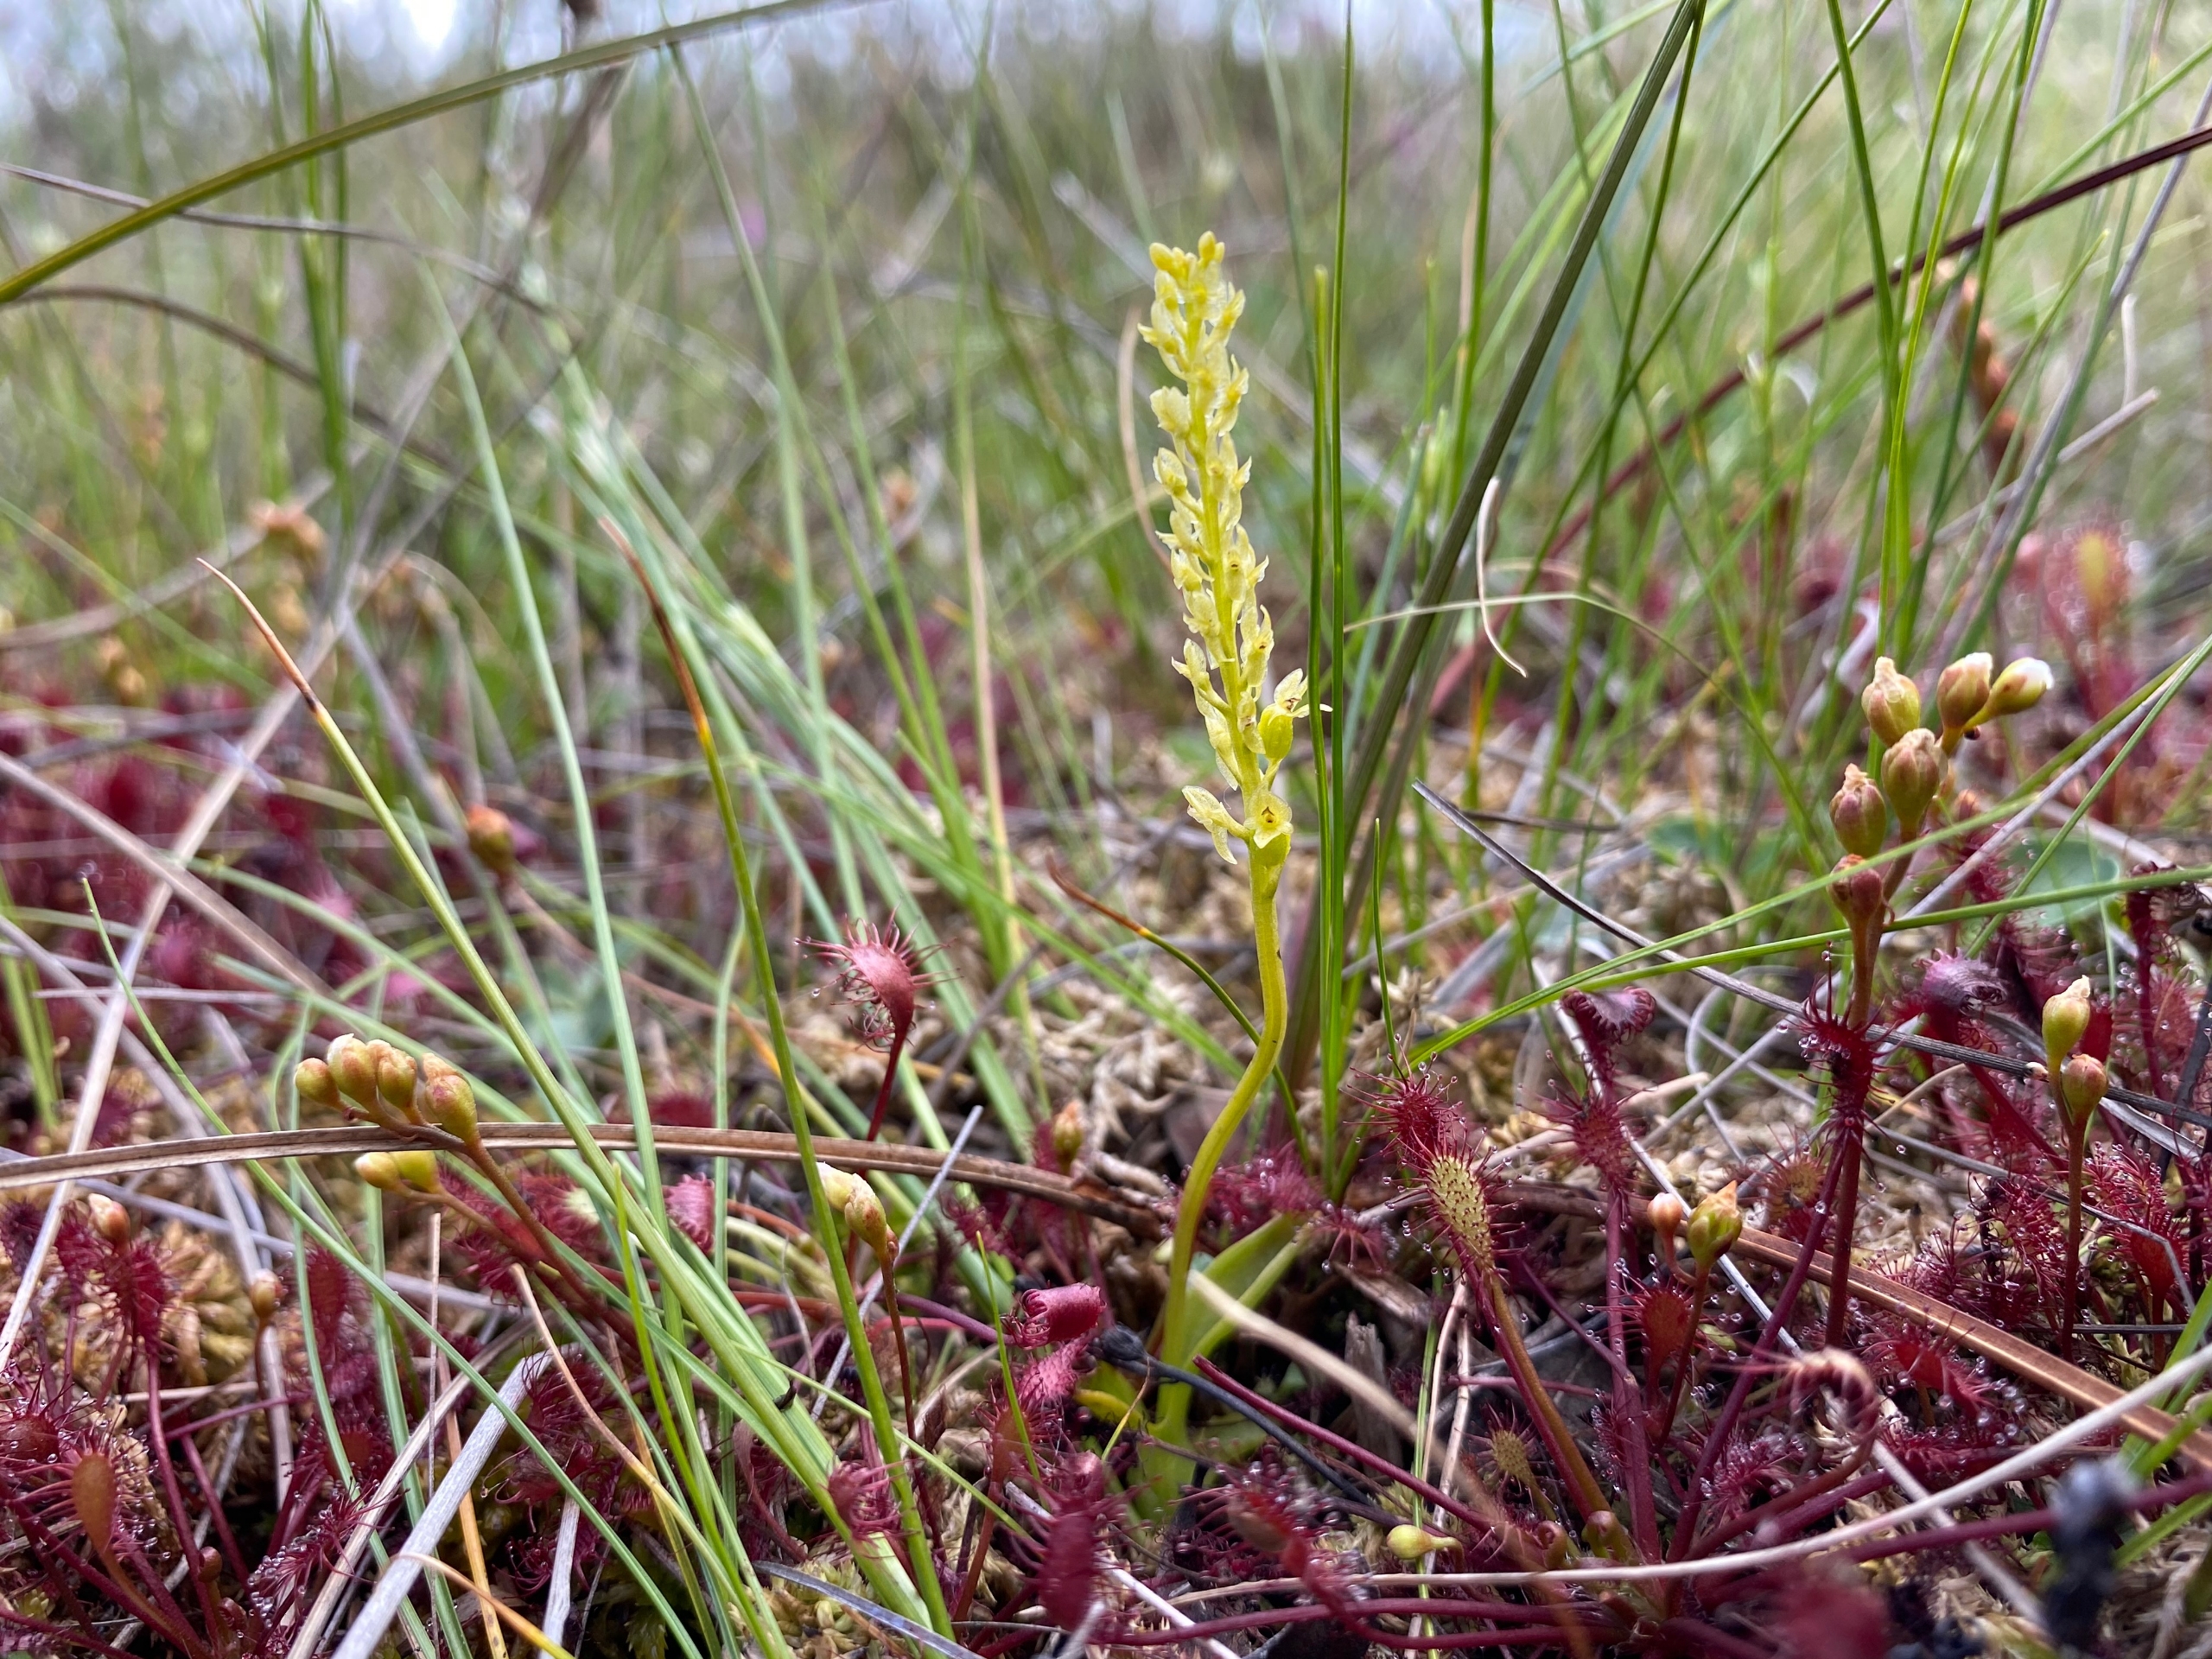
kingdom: Plantae
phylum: Tracheophyta
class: Liliopsida
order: Asparagales
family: Orchidaceae
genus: Hammarbya
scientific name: Hammarbya paludosa
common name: Hjertelæbe
